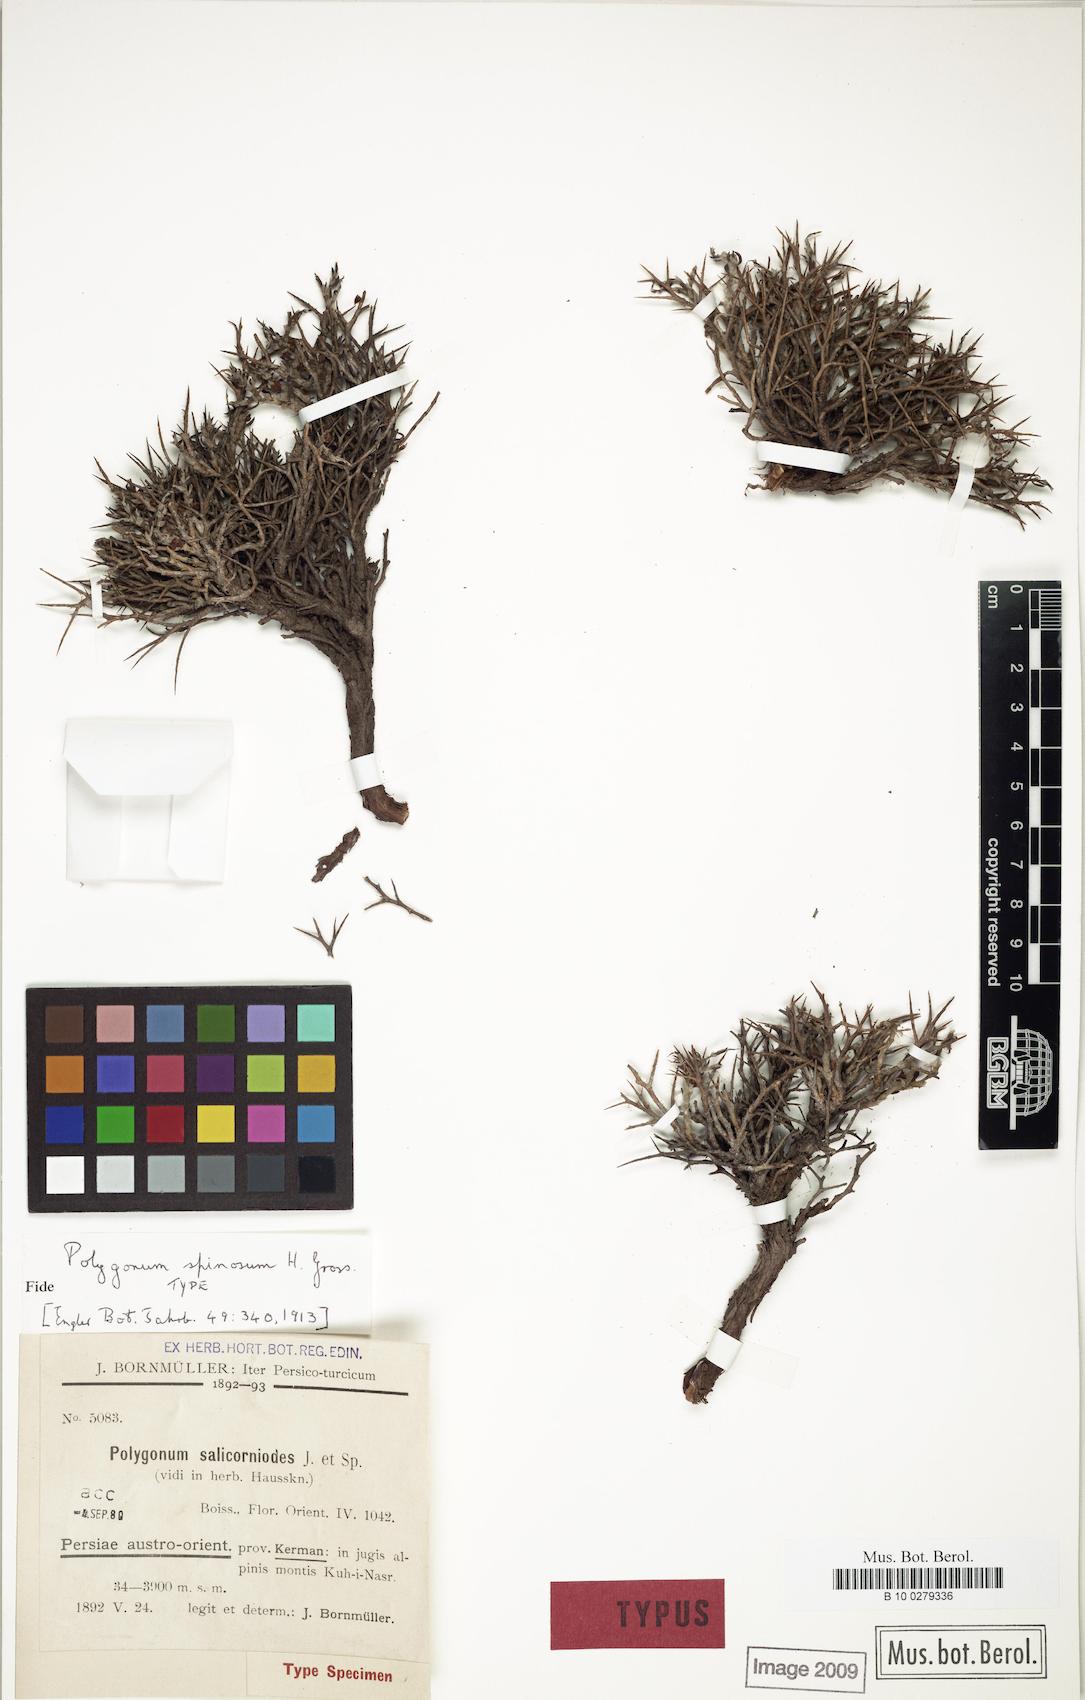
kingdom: Plantae
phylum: Tracheophyta
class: Magnoliopsida
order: Caryophyllales
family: Polygonaceae
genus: Atraphaxis
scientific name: Atraphaxis salicornioides
